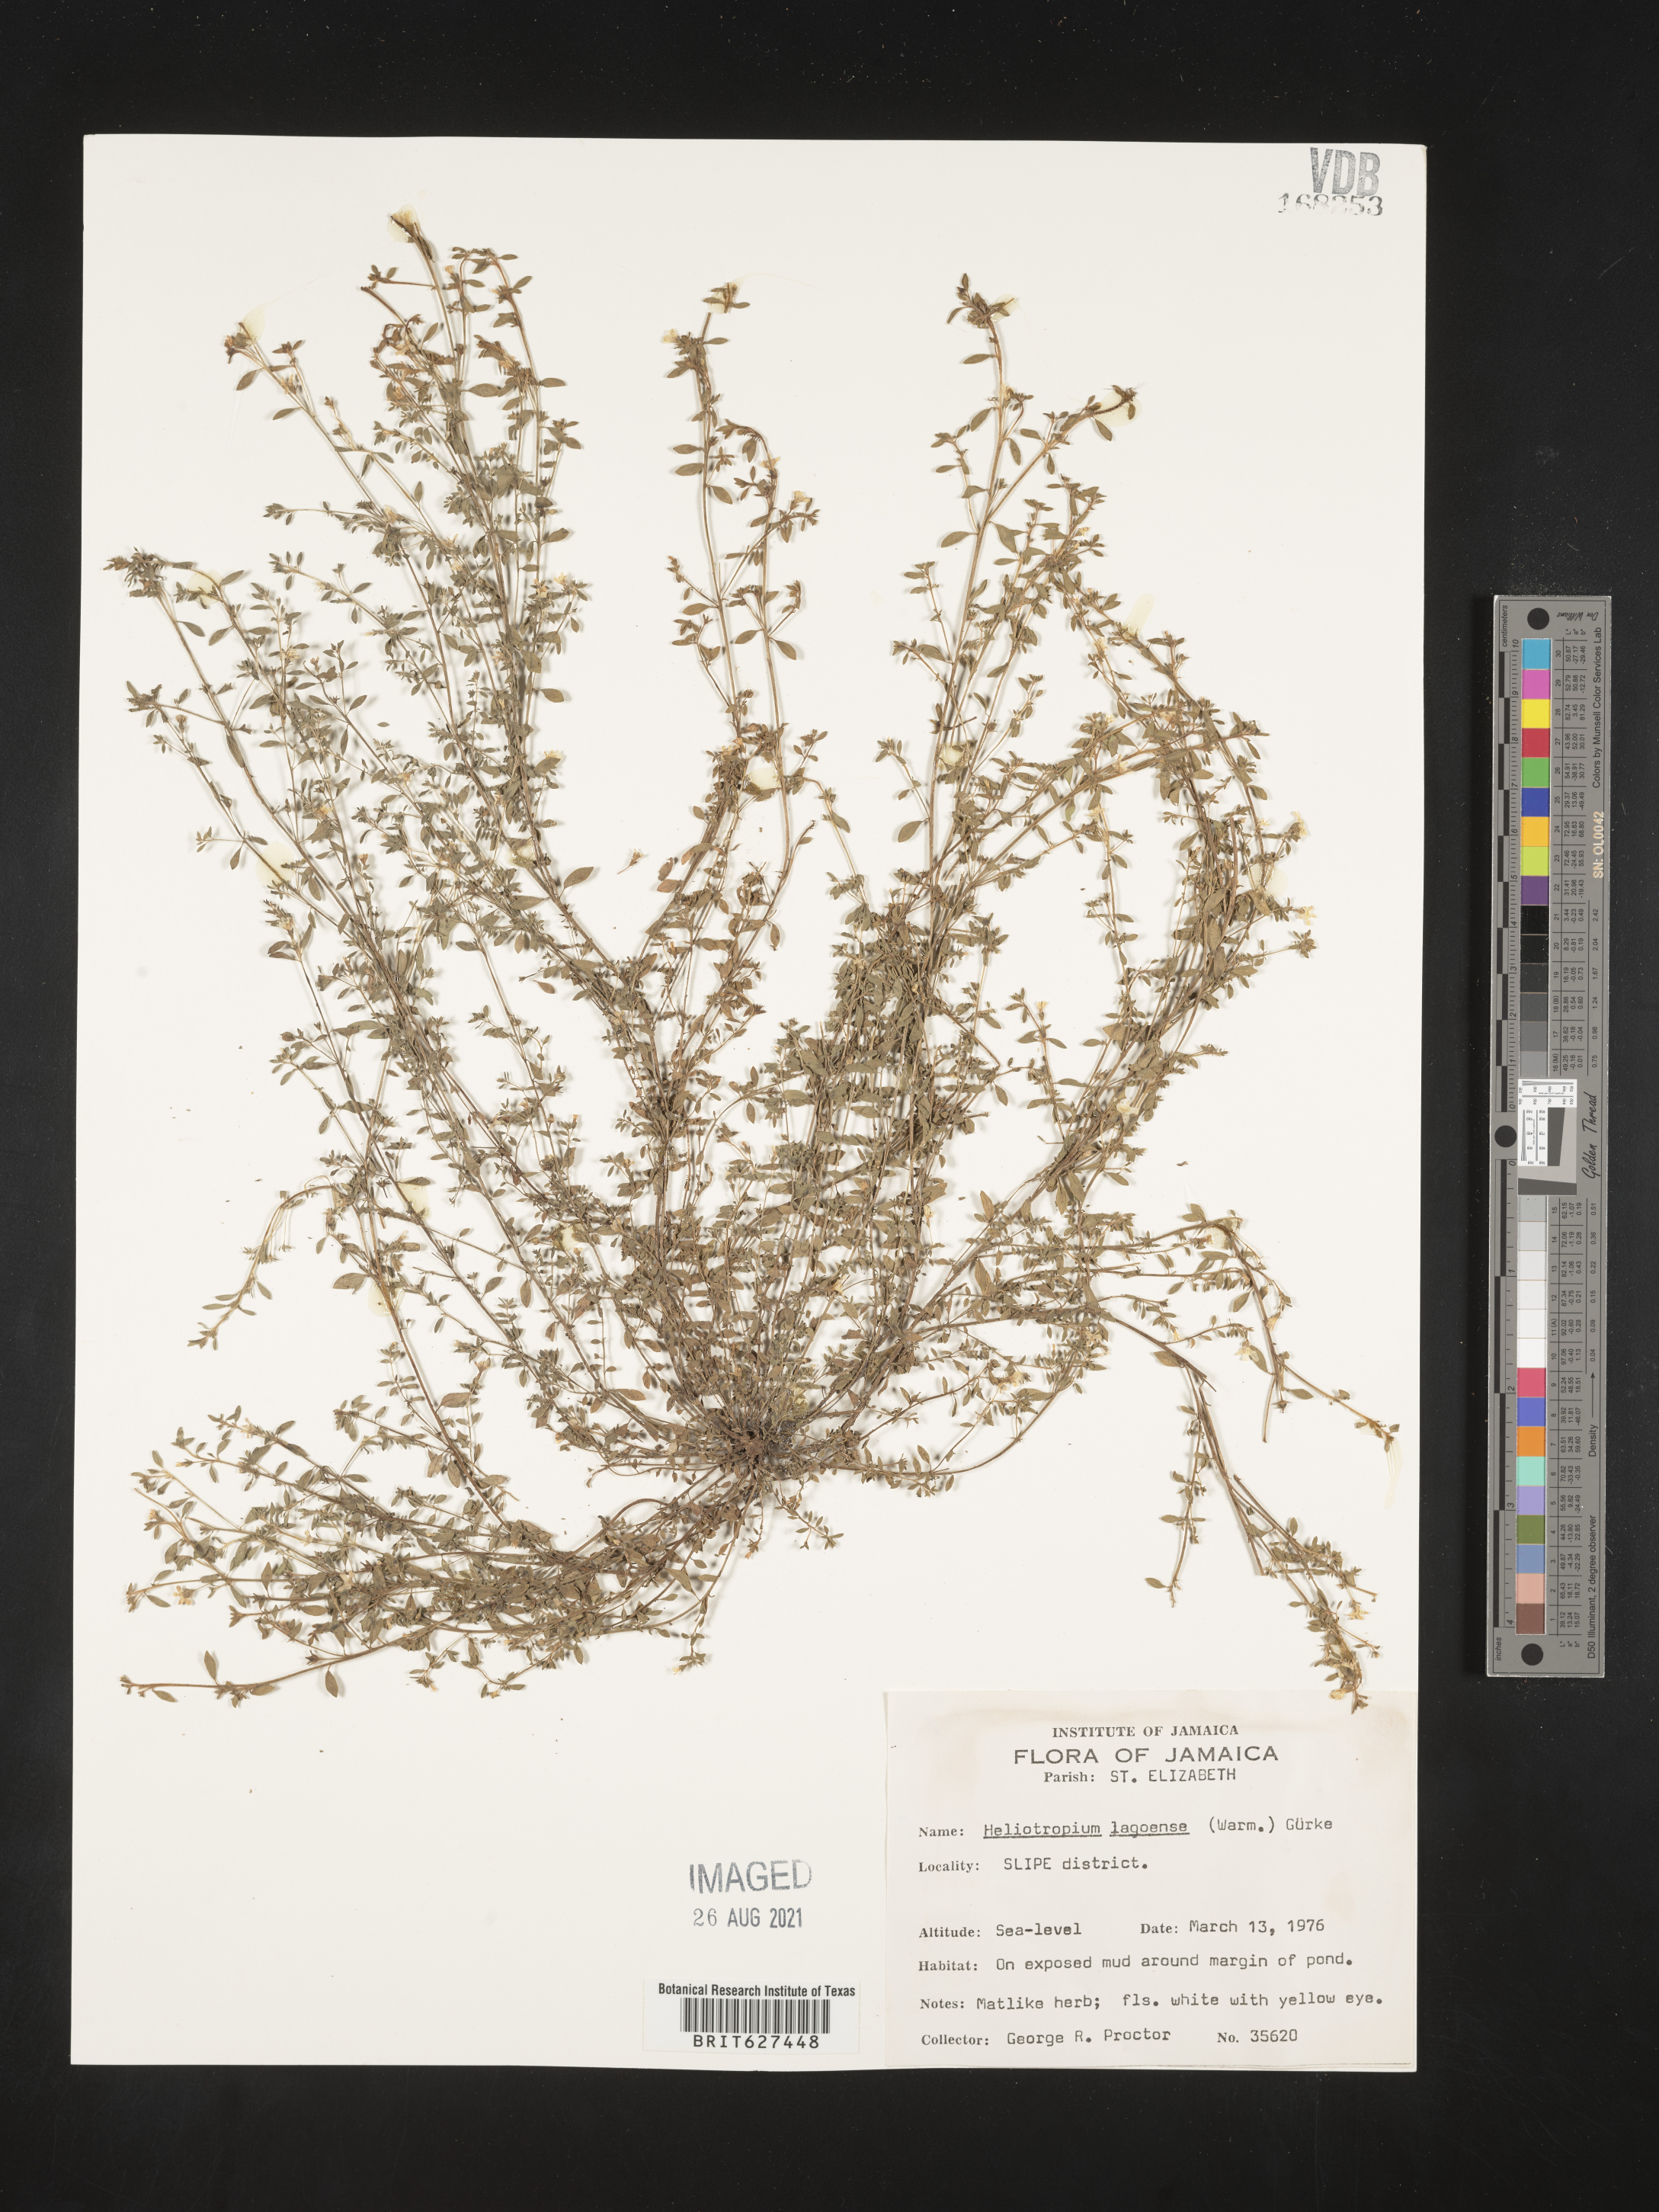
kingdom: Plantae
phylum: Tracheophyta
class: Magnoliopsida
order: Boraginales
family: Heliotropiaceae
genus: Euploca
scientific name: Euploca lagoensis
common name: Antilles heliotrope
